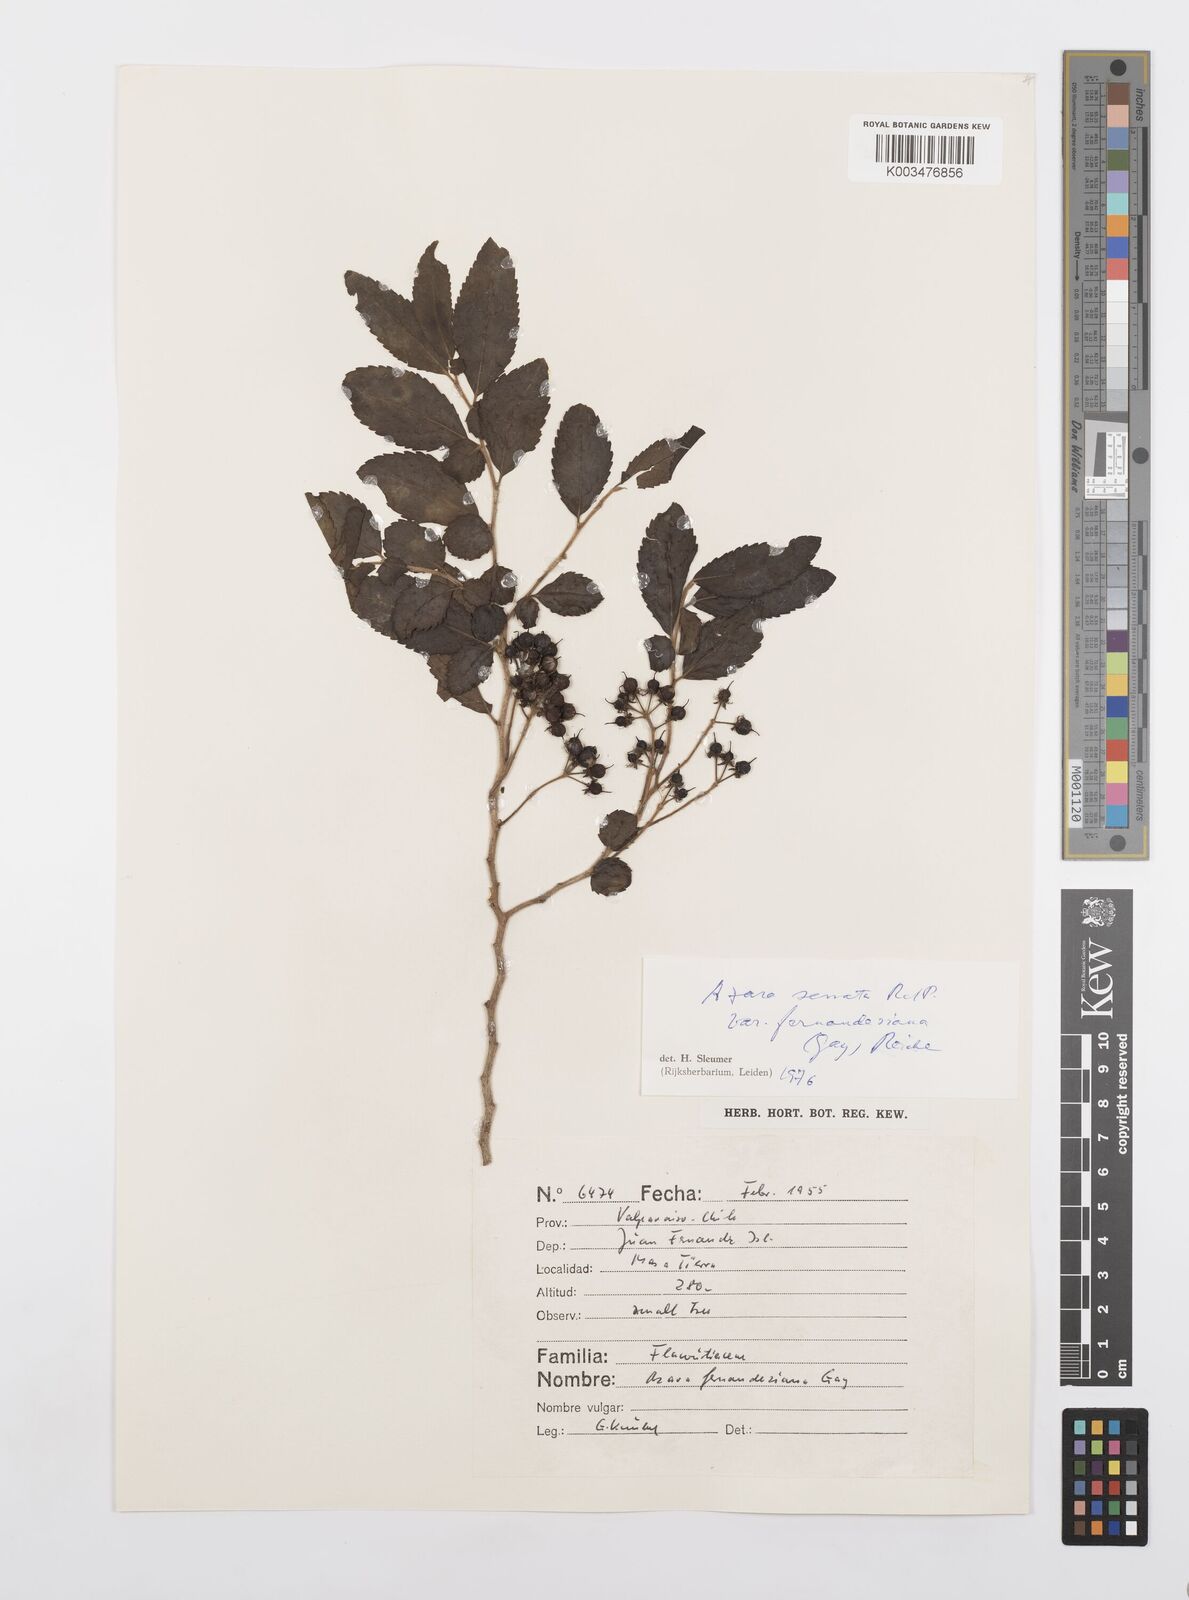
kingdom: Plantae
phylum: Tracheophyta
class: Magnoliopsida
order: Malpighiales
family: Salicaceae
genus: Azara
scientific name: Azara serrata
